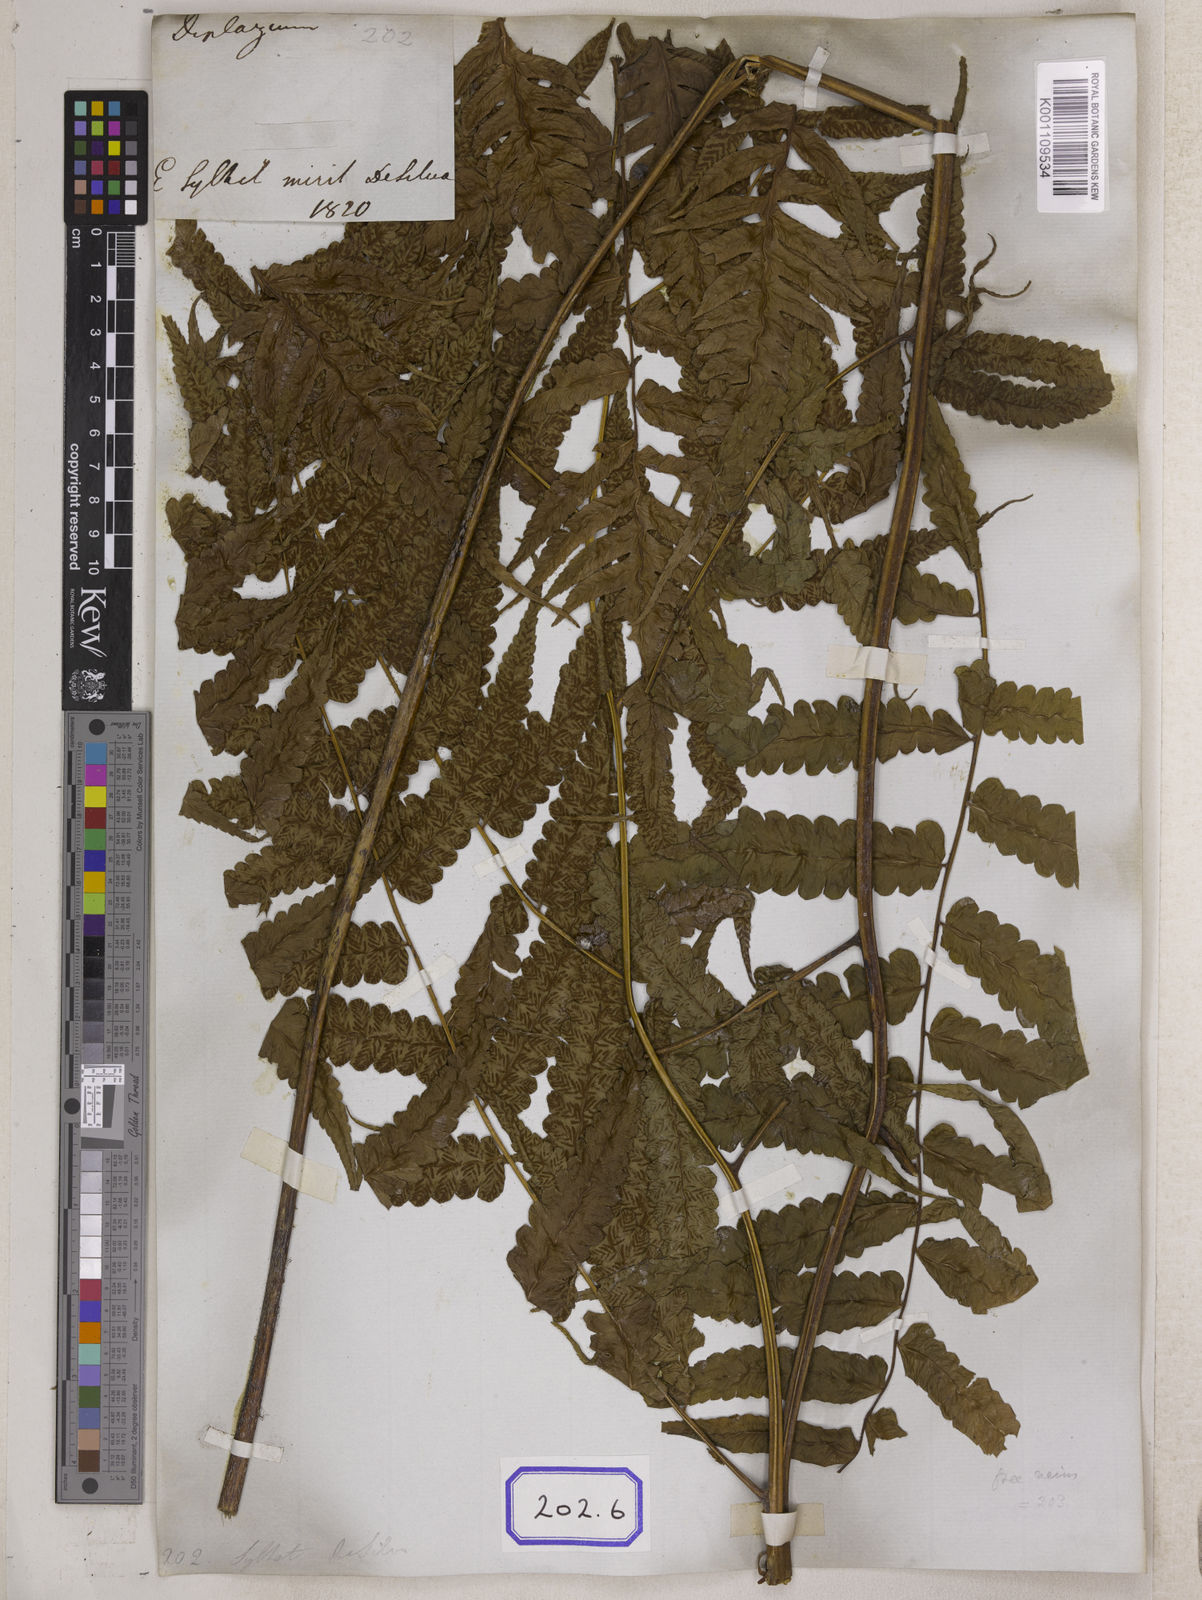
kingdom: Plantae
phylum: Tracheophyta
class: Polypodiopsida
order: Polypodiales
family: Aspleniaceae
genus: Asplenium
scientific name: Asplenium
